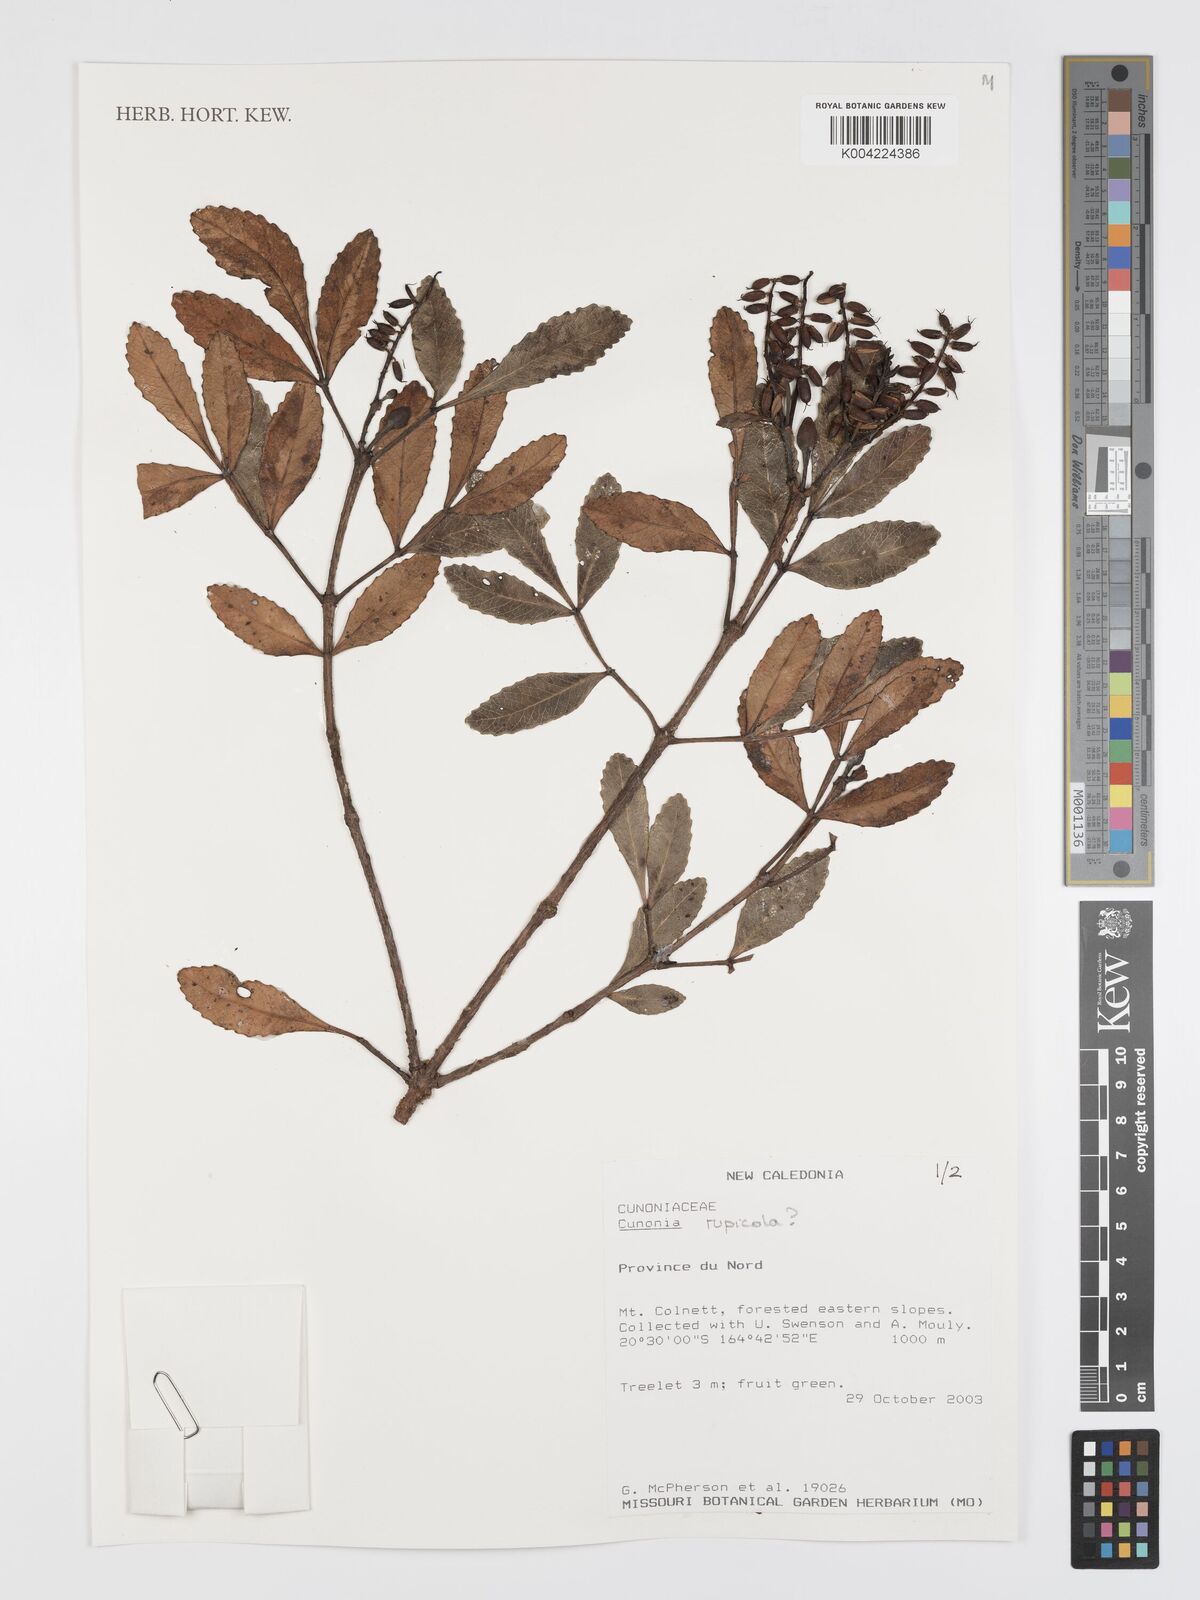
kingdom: Plantae
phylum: Tracheophyta
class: Magnoliopsida
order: Oxalidales
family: Cunoniaceae
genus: Cunonia
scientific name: Cunonia rupicola
